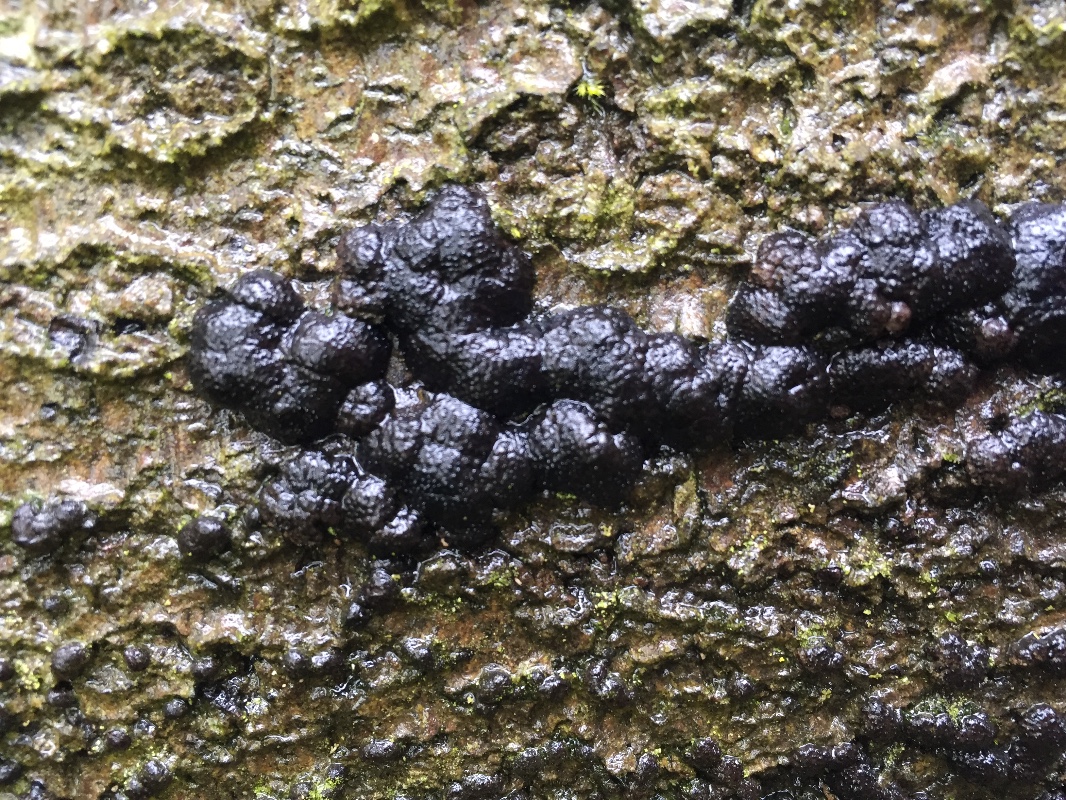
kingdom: Fungi
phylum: Ascomycota
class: Sordariomycetes
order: Xylariales
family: Hypoxylaceae
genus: Jackrogersella
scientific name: Jackrogersella cohaerens
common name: sammenflydende kulbær
